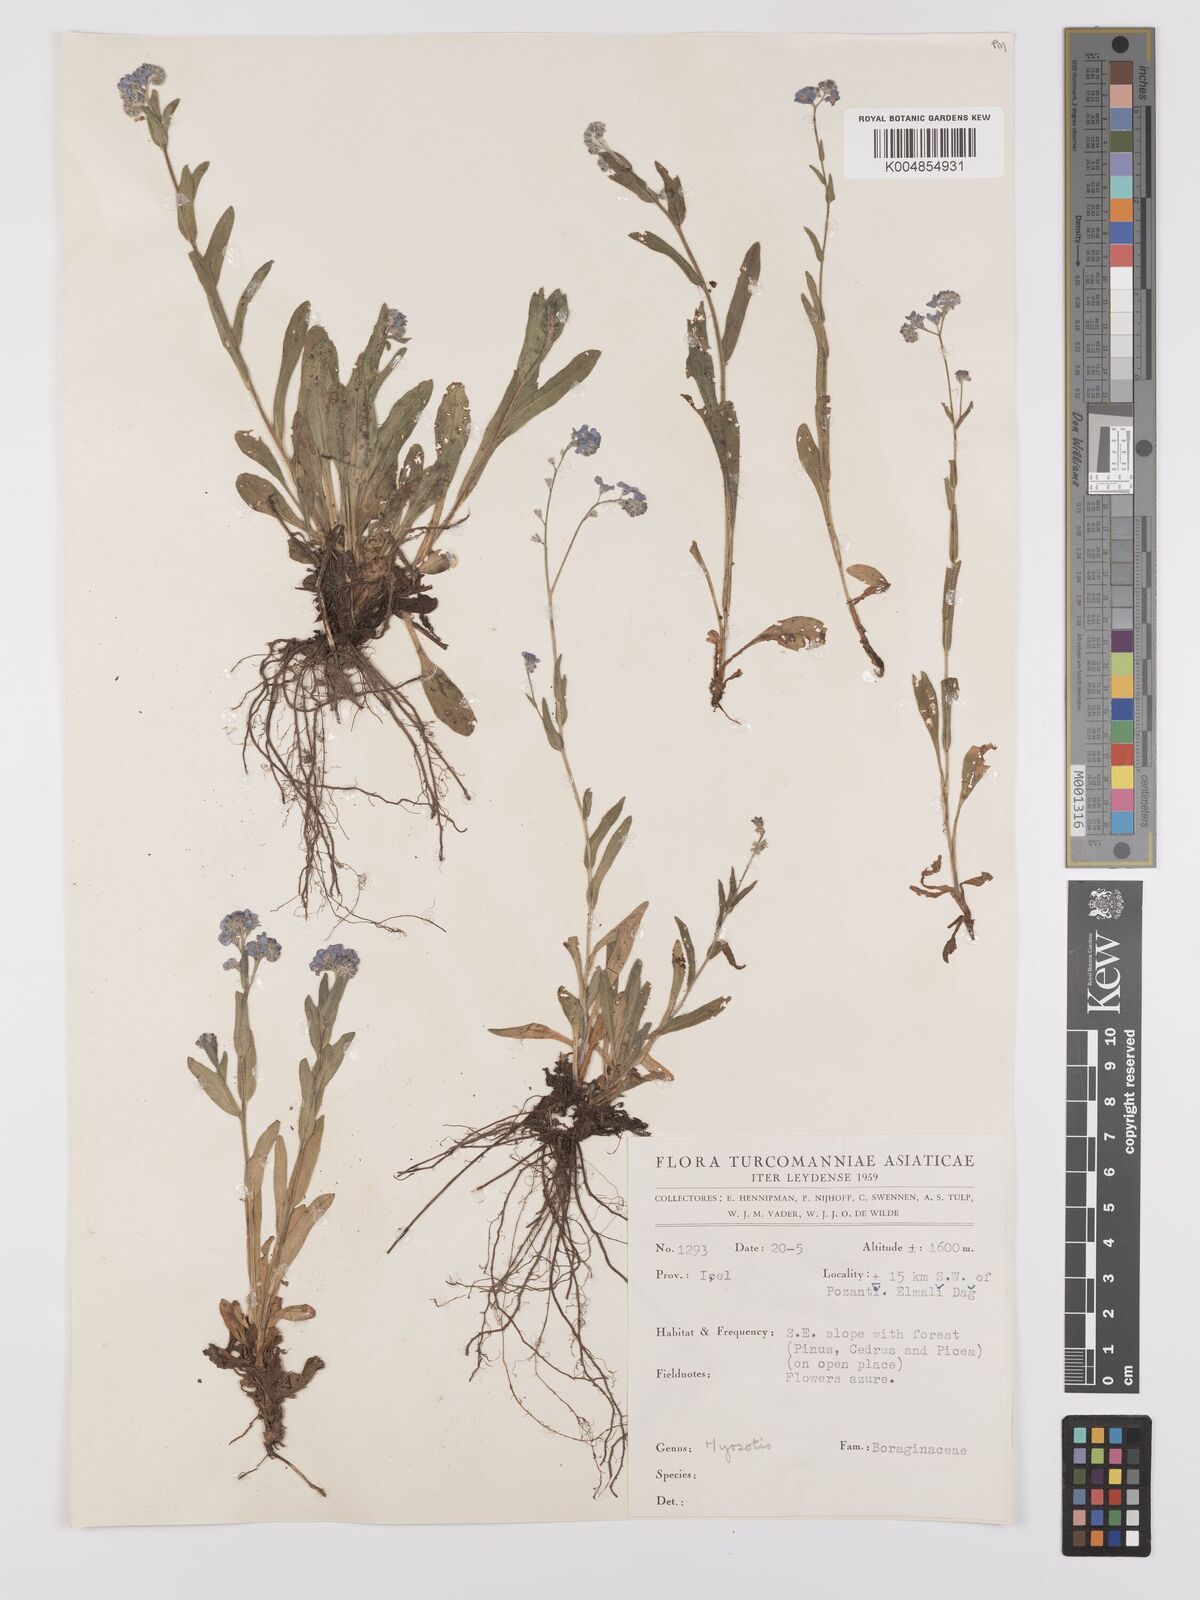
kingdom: Plantae
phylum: Tracheophyta
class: Magnoliopsida
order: Boraginales
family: Boraginaceae
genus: Myosotis
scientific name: Myosotis
